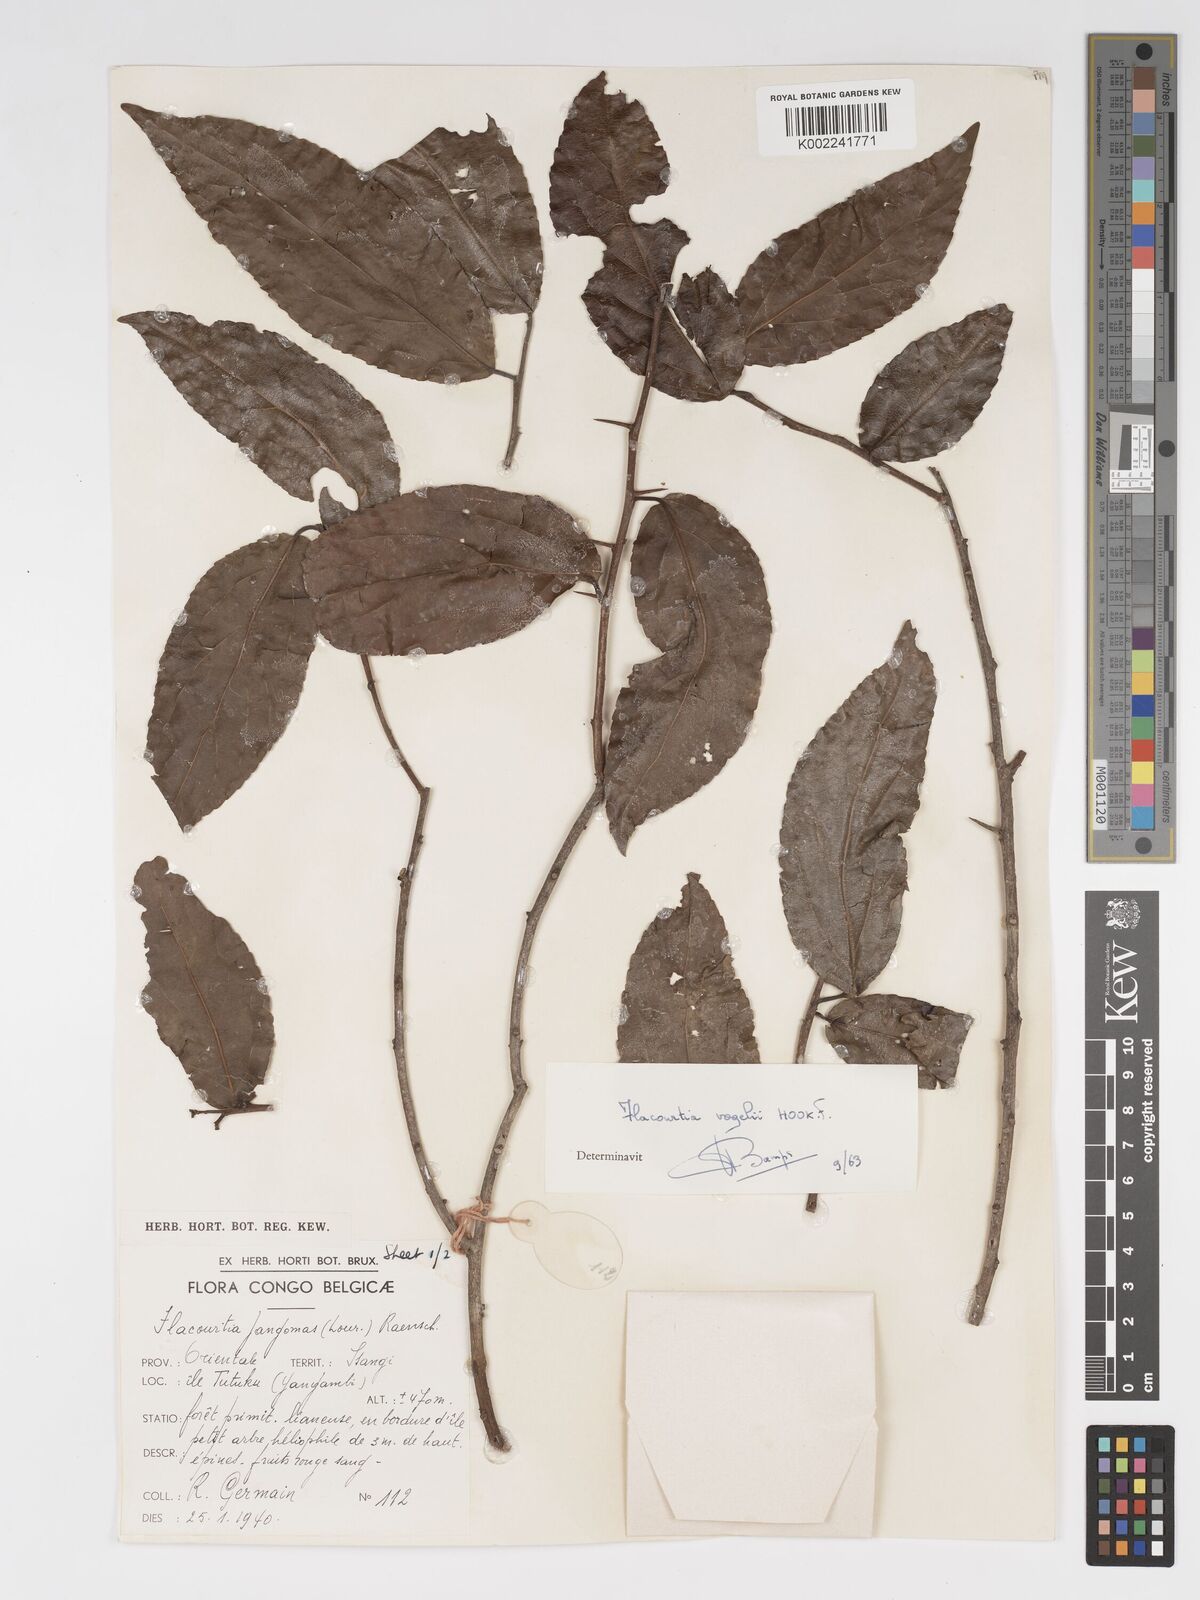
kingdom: Plantae
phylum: Tracheophyta
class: Magnoliopsida
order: Malpighiales
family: Salicaceae
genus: Flacourtia
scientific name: Flacourtia vogelii
